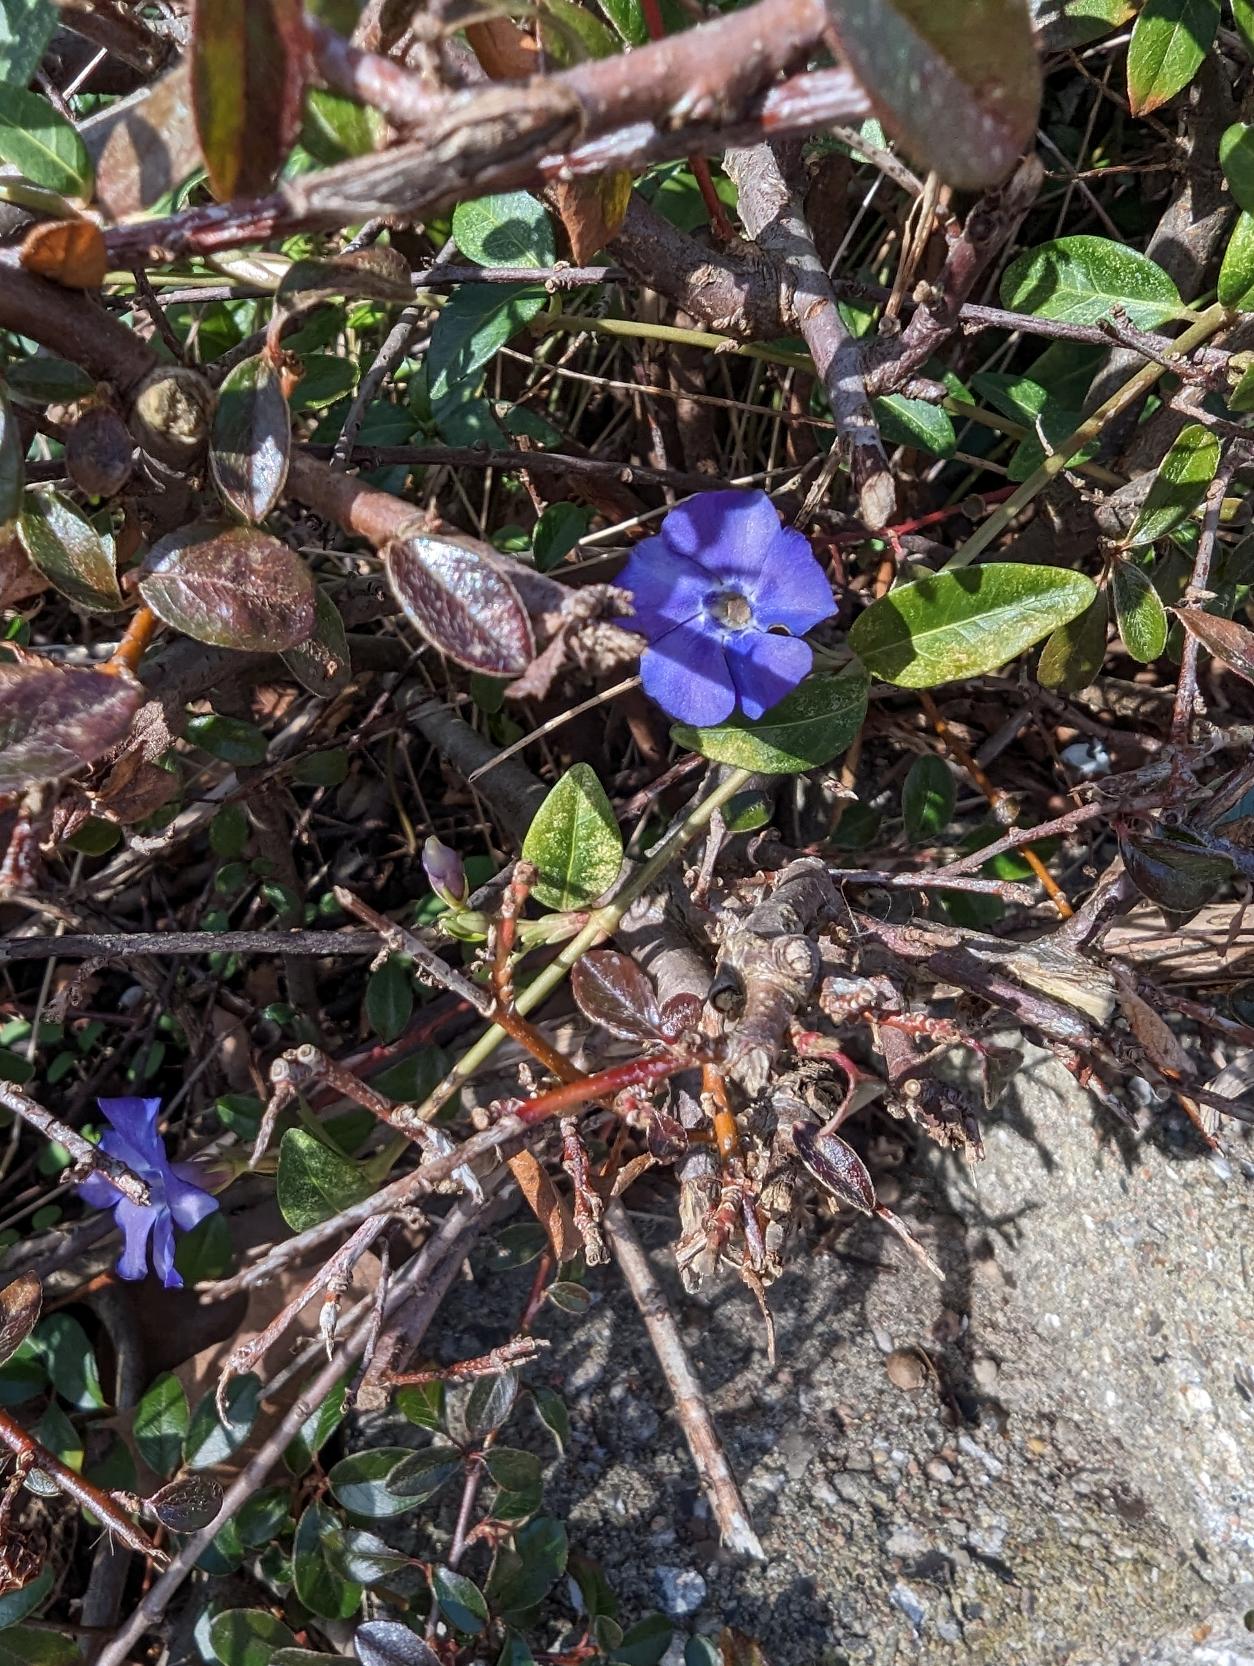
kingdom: Plantae
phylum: Tracheophyta
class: Magnoliopsida
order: Gentianales
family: Apocynaceae
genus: Vinca
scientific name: Vinca minor
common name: Liden singrøn
